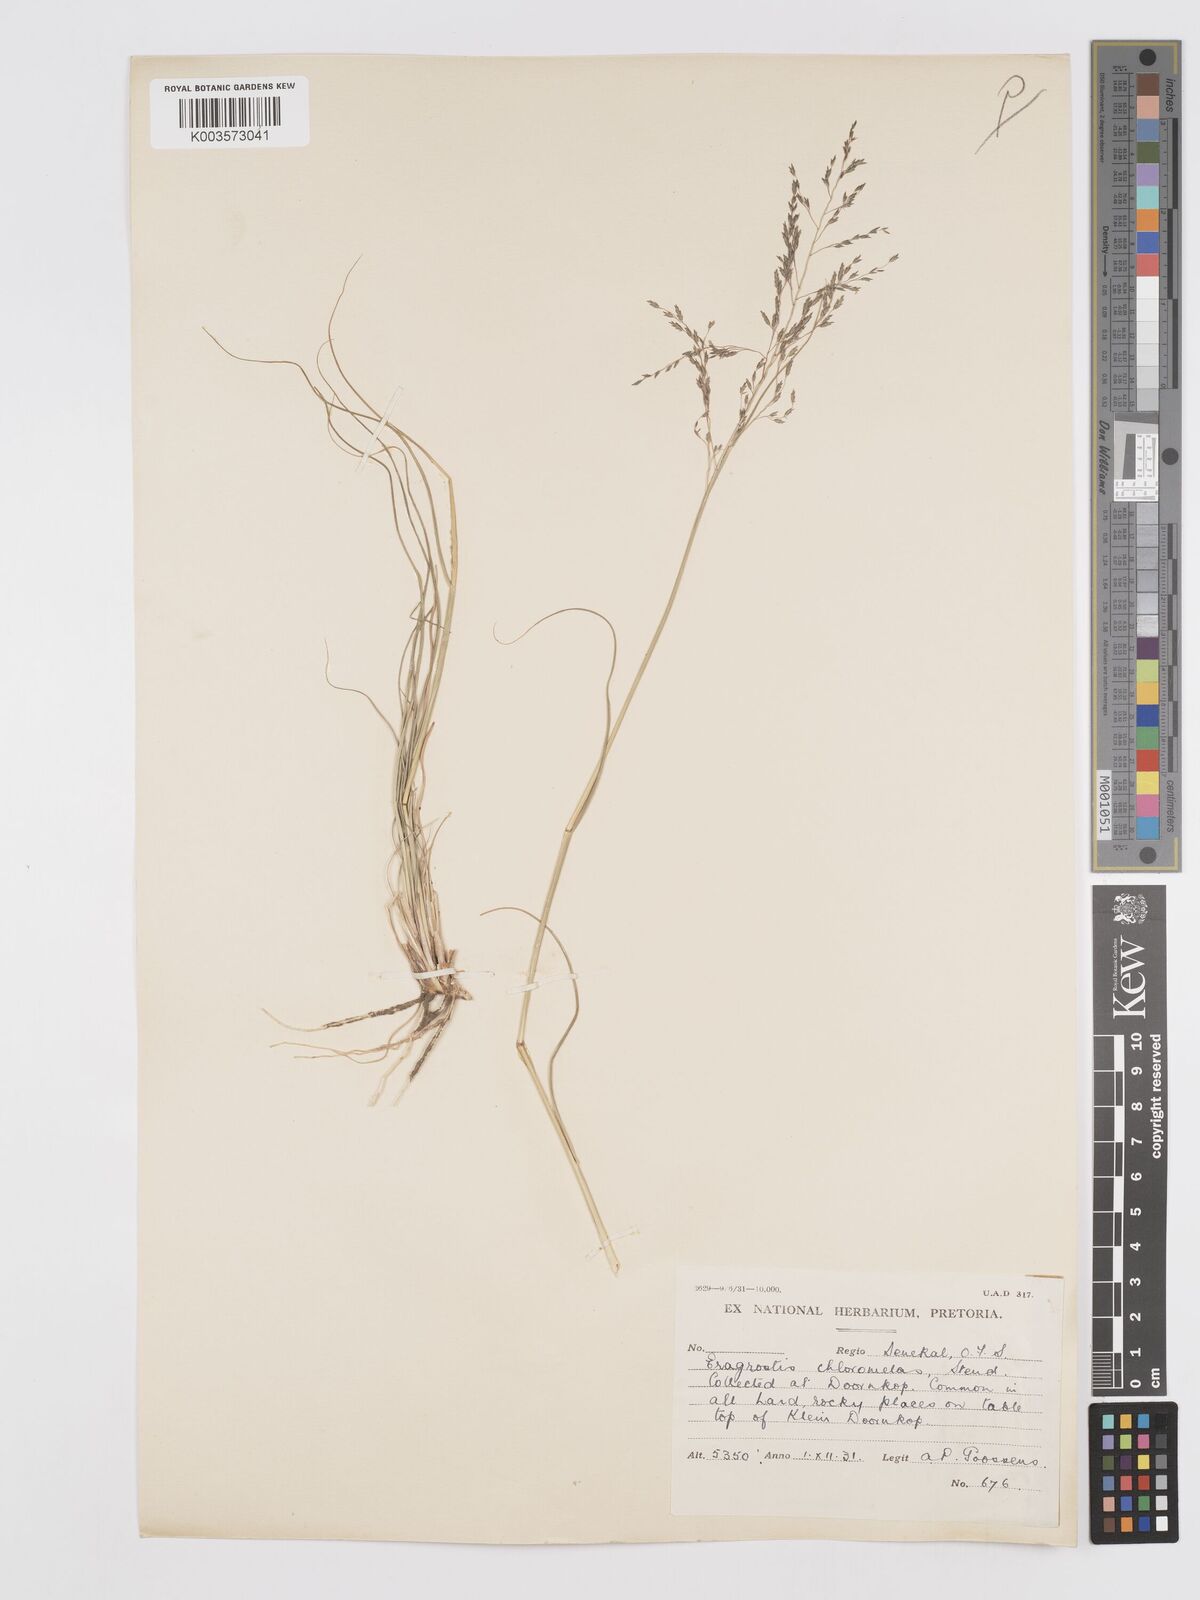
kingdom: Plantae
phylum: Tracheophyta
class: Liliopsida
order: Poales
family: Poaceae
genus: Eragrostis
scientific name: Eragrostis curvula
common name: African love-grass
